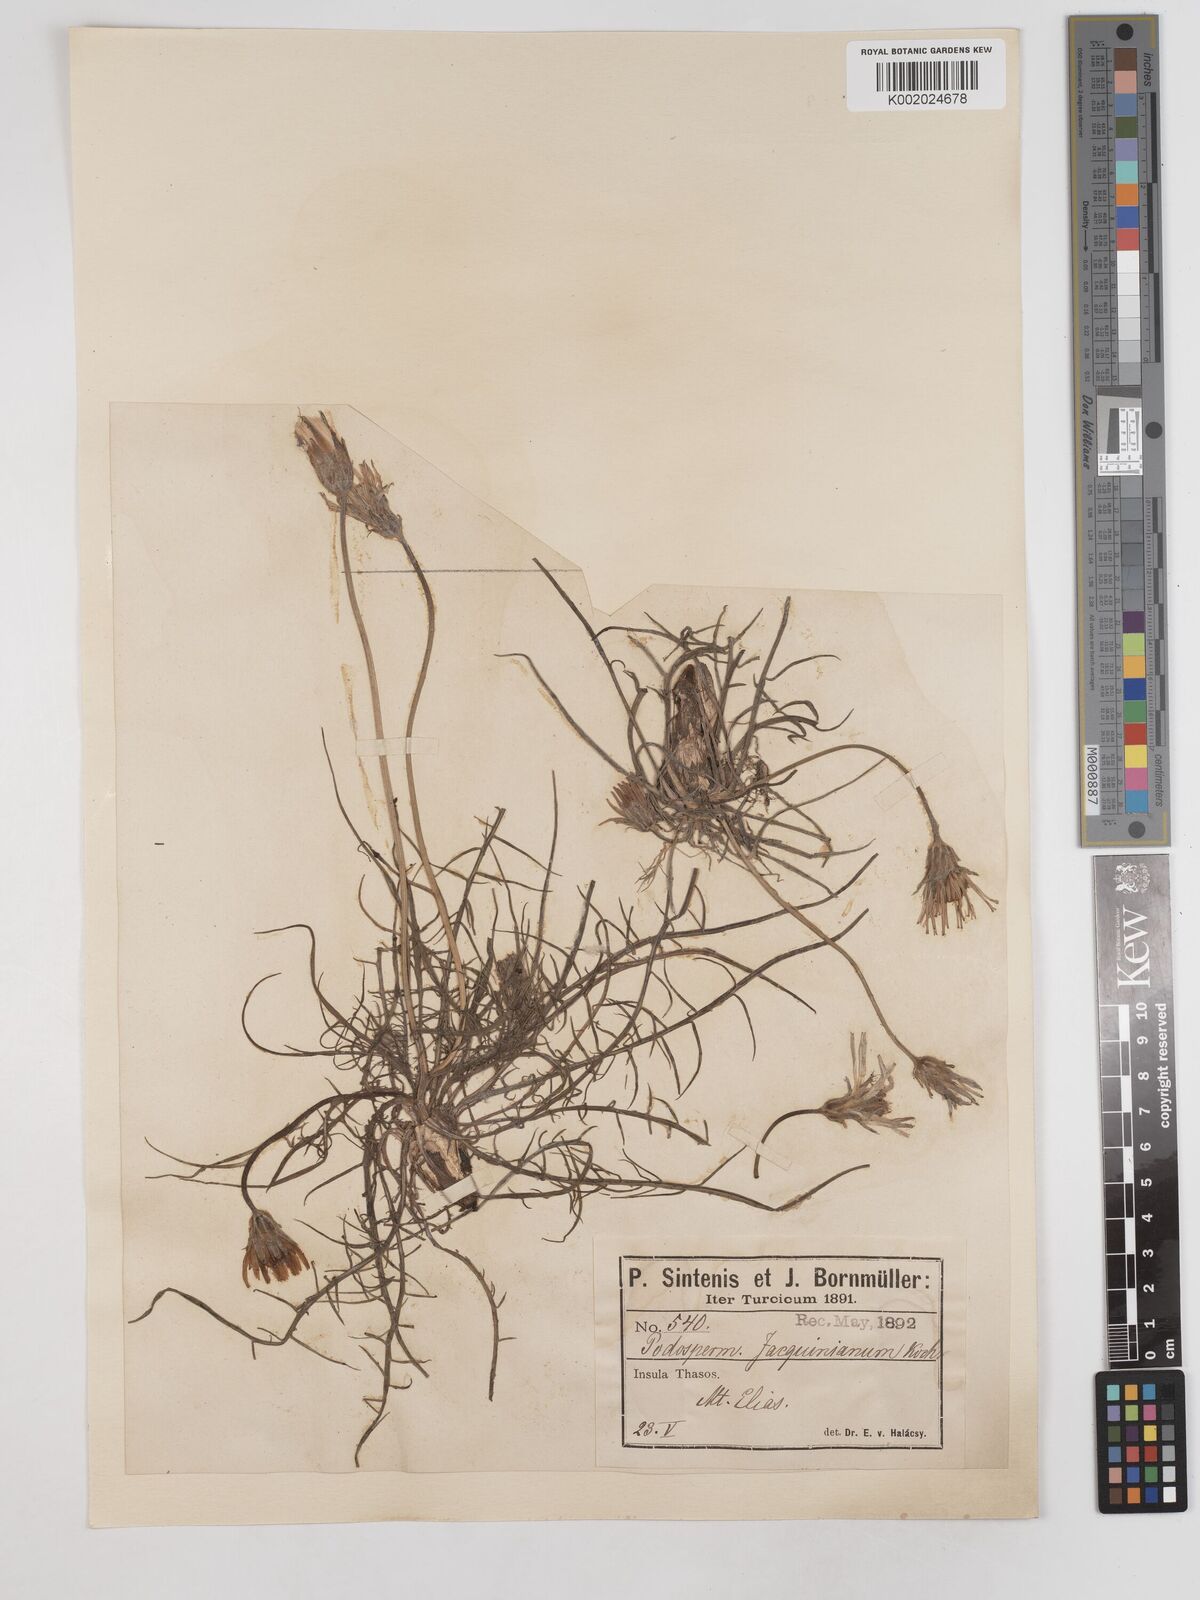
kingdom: Plantae
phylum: Tracheophyta
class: Magnoliopsida
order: Asterales
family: Asteraceae
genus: Scorzonera
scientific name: Scorzonera cana
